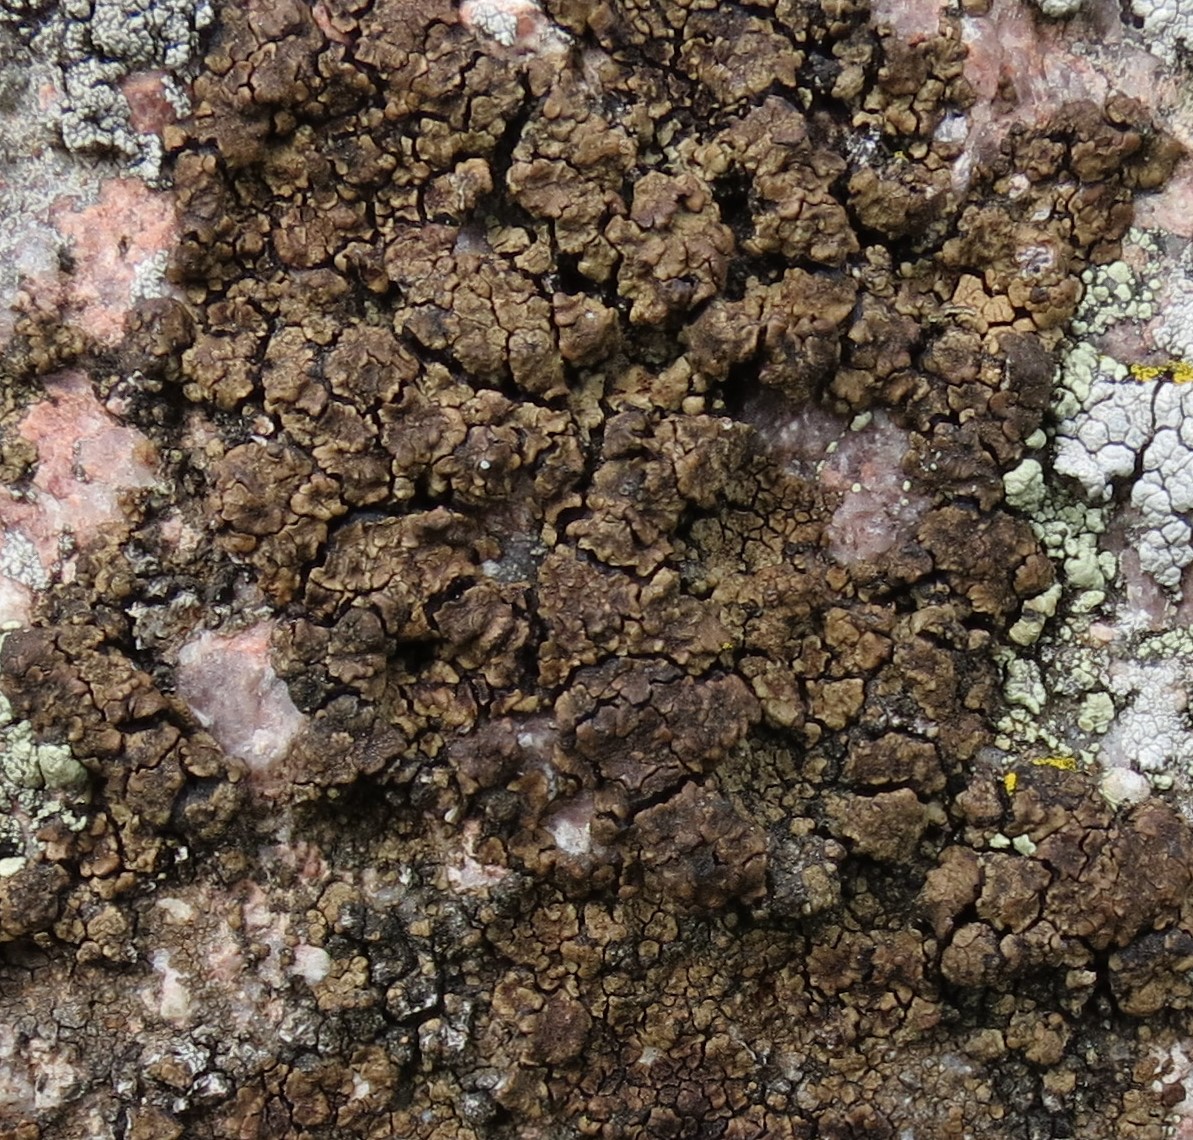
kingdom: Fungi
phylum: Ascomycota
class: Lecanoromycetes
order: Acarosporales
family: Acarosporaceae
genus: Acarospora
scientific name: Acarospora fuscata
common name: brun småsporelav
